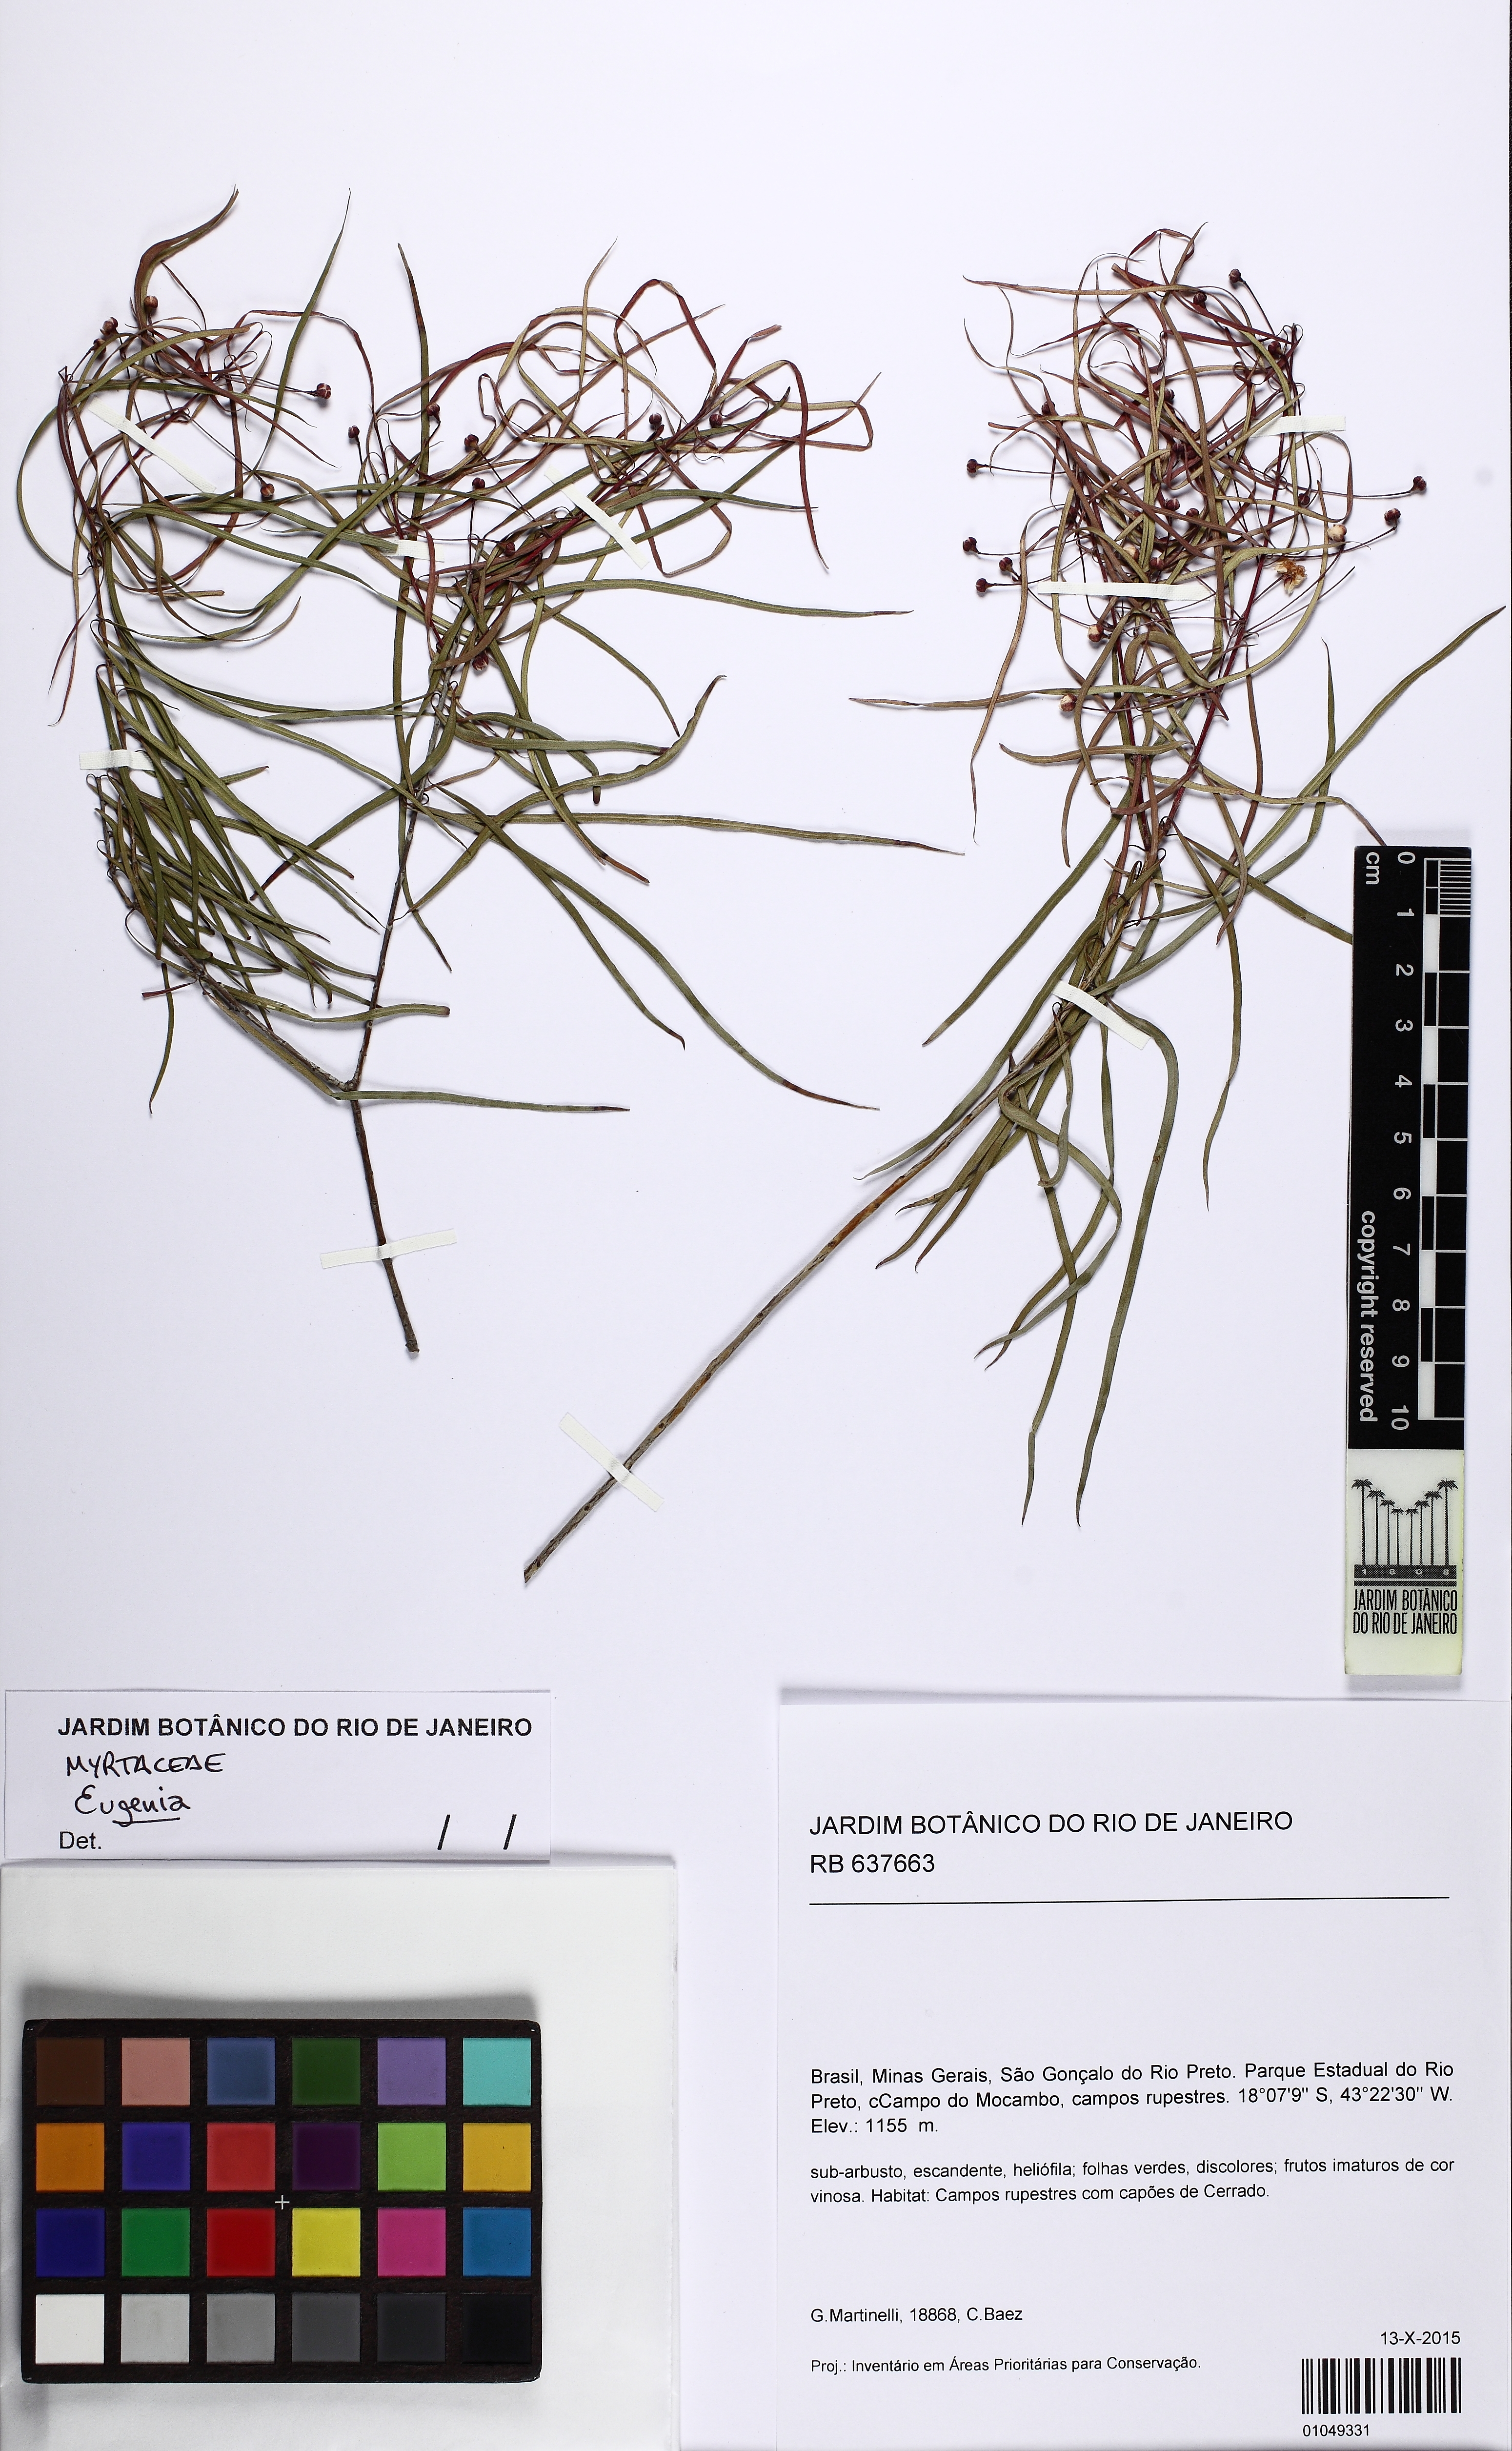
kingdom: Plantae
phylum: Tracheophyta
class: Magnoliopsida
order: Myrtales
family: Myrtaceae
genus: Blepharocalyx
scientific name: Blepharocalyx myriophyllus
